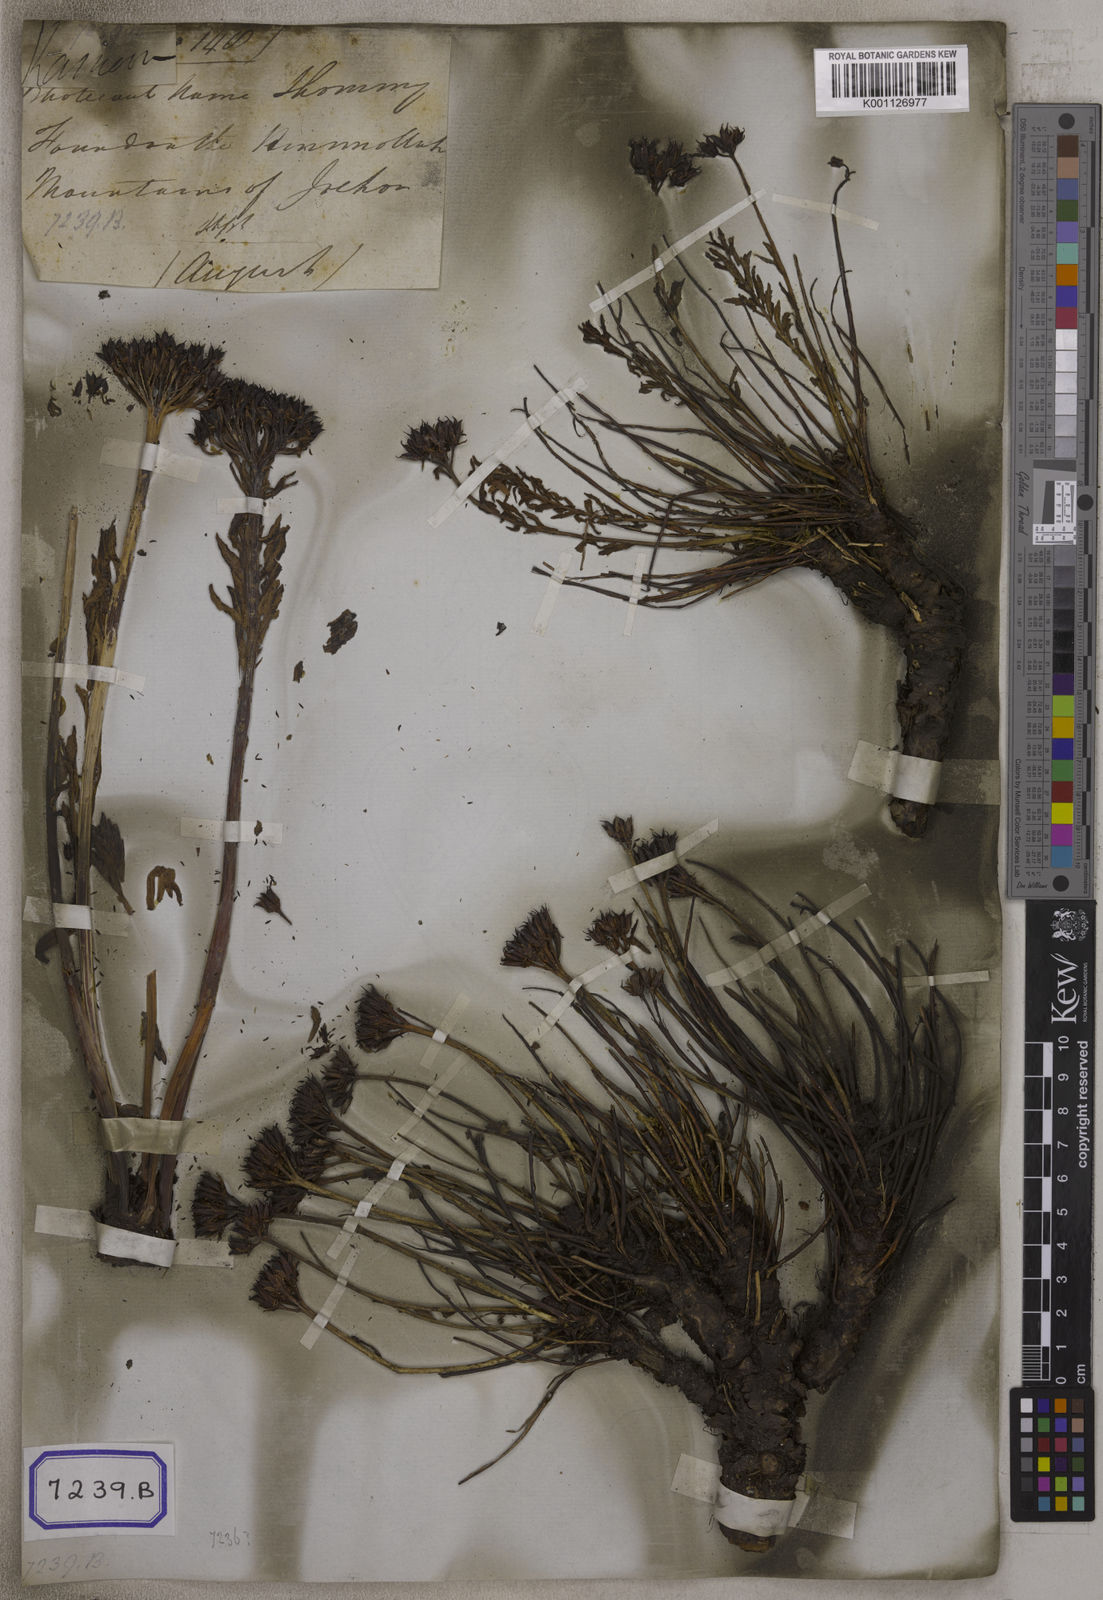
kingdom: Plantae
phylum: Tracheophyta
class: Magnoliopsida
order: Saxifragales
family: Crassulaceae
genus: Sedum
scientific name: Sedum
